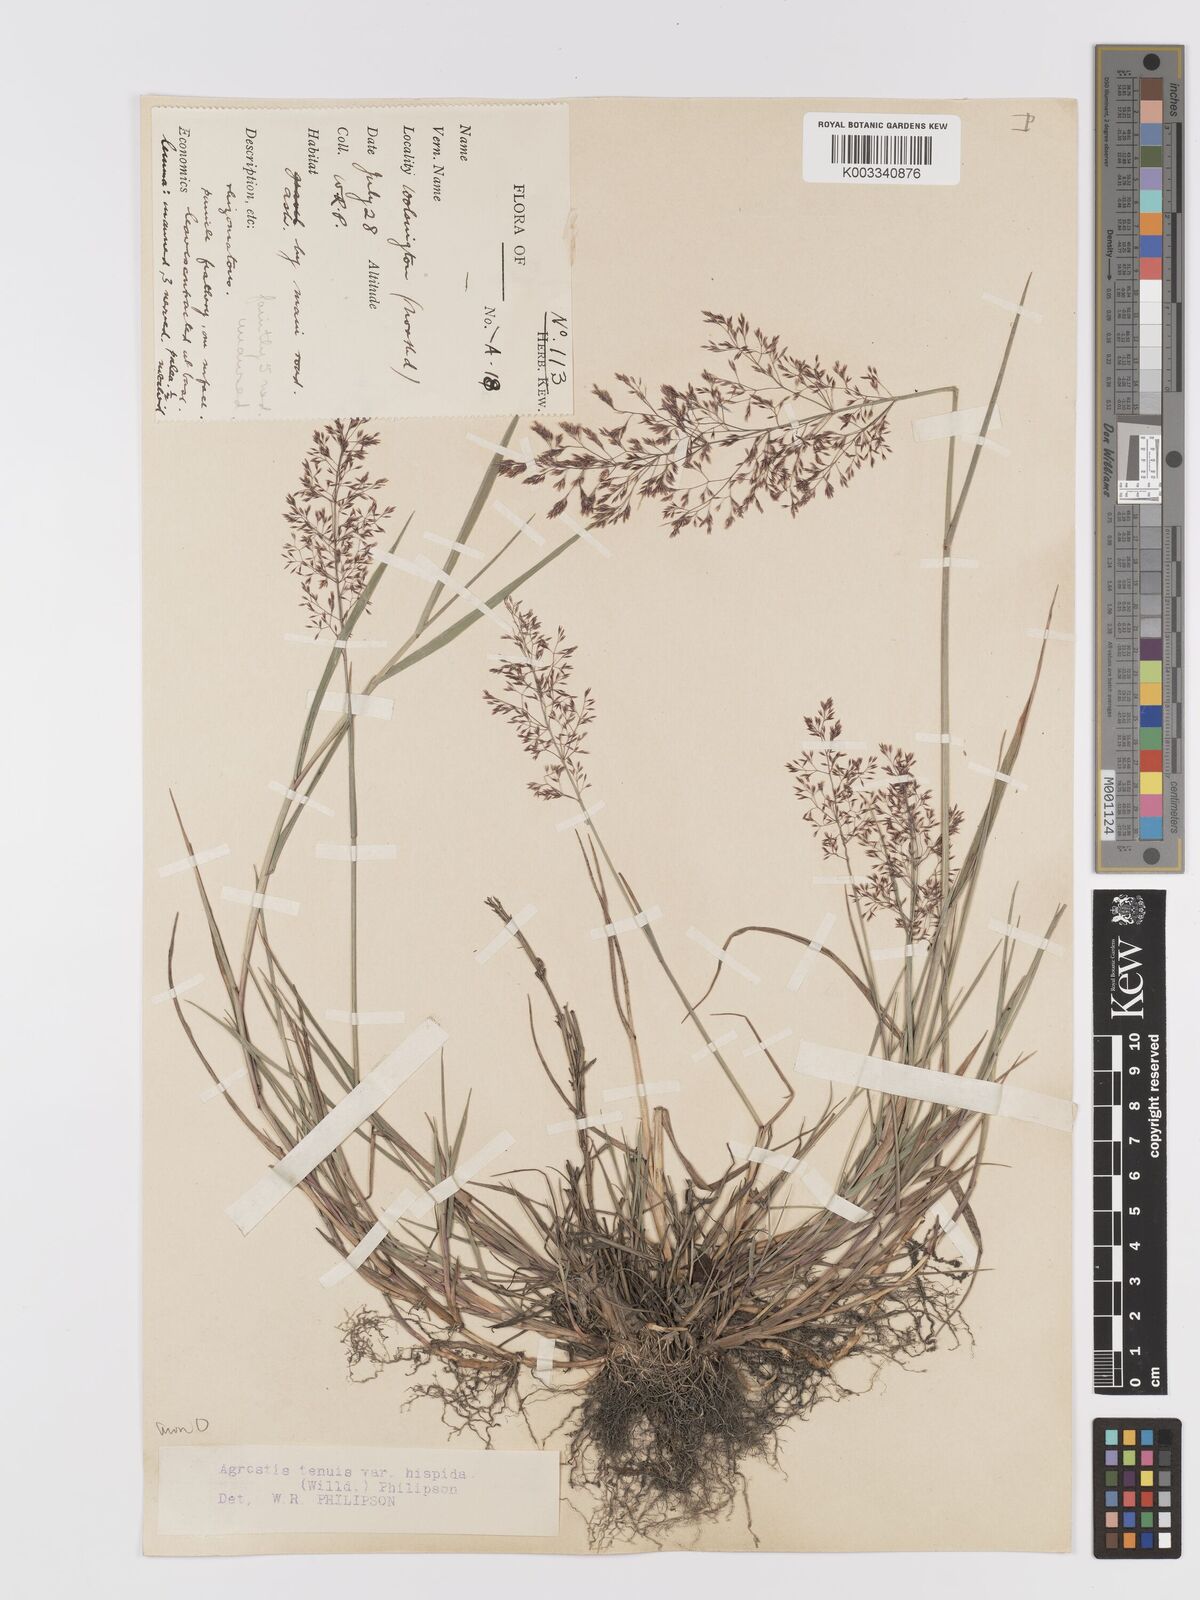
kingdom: Plantae
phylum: Tracheophyta
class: Liliopsida
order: Poales
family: Poaceae
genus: Agrostis
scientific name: Agrostis capillaris
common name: Colonial bentgrass
